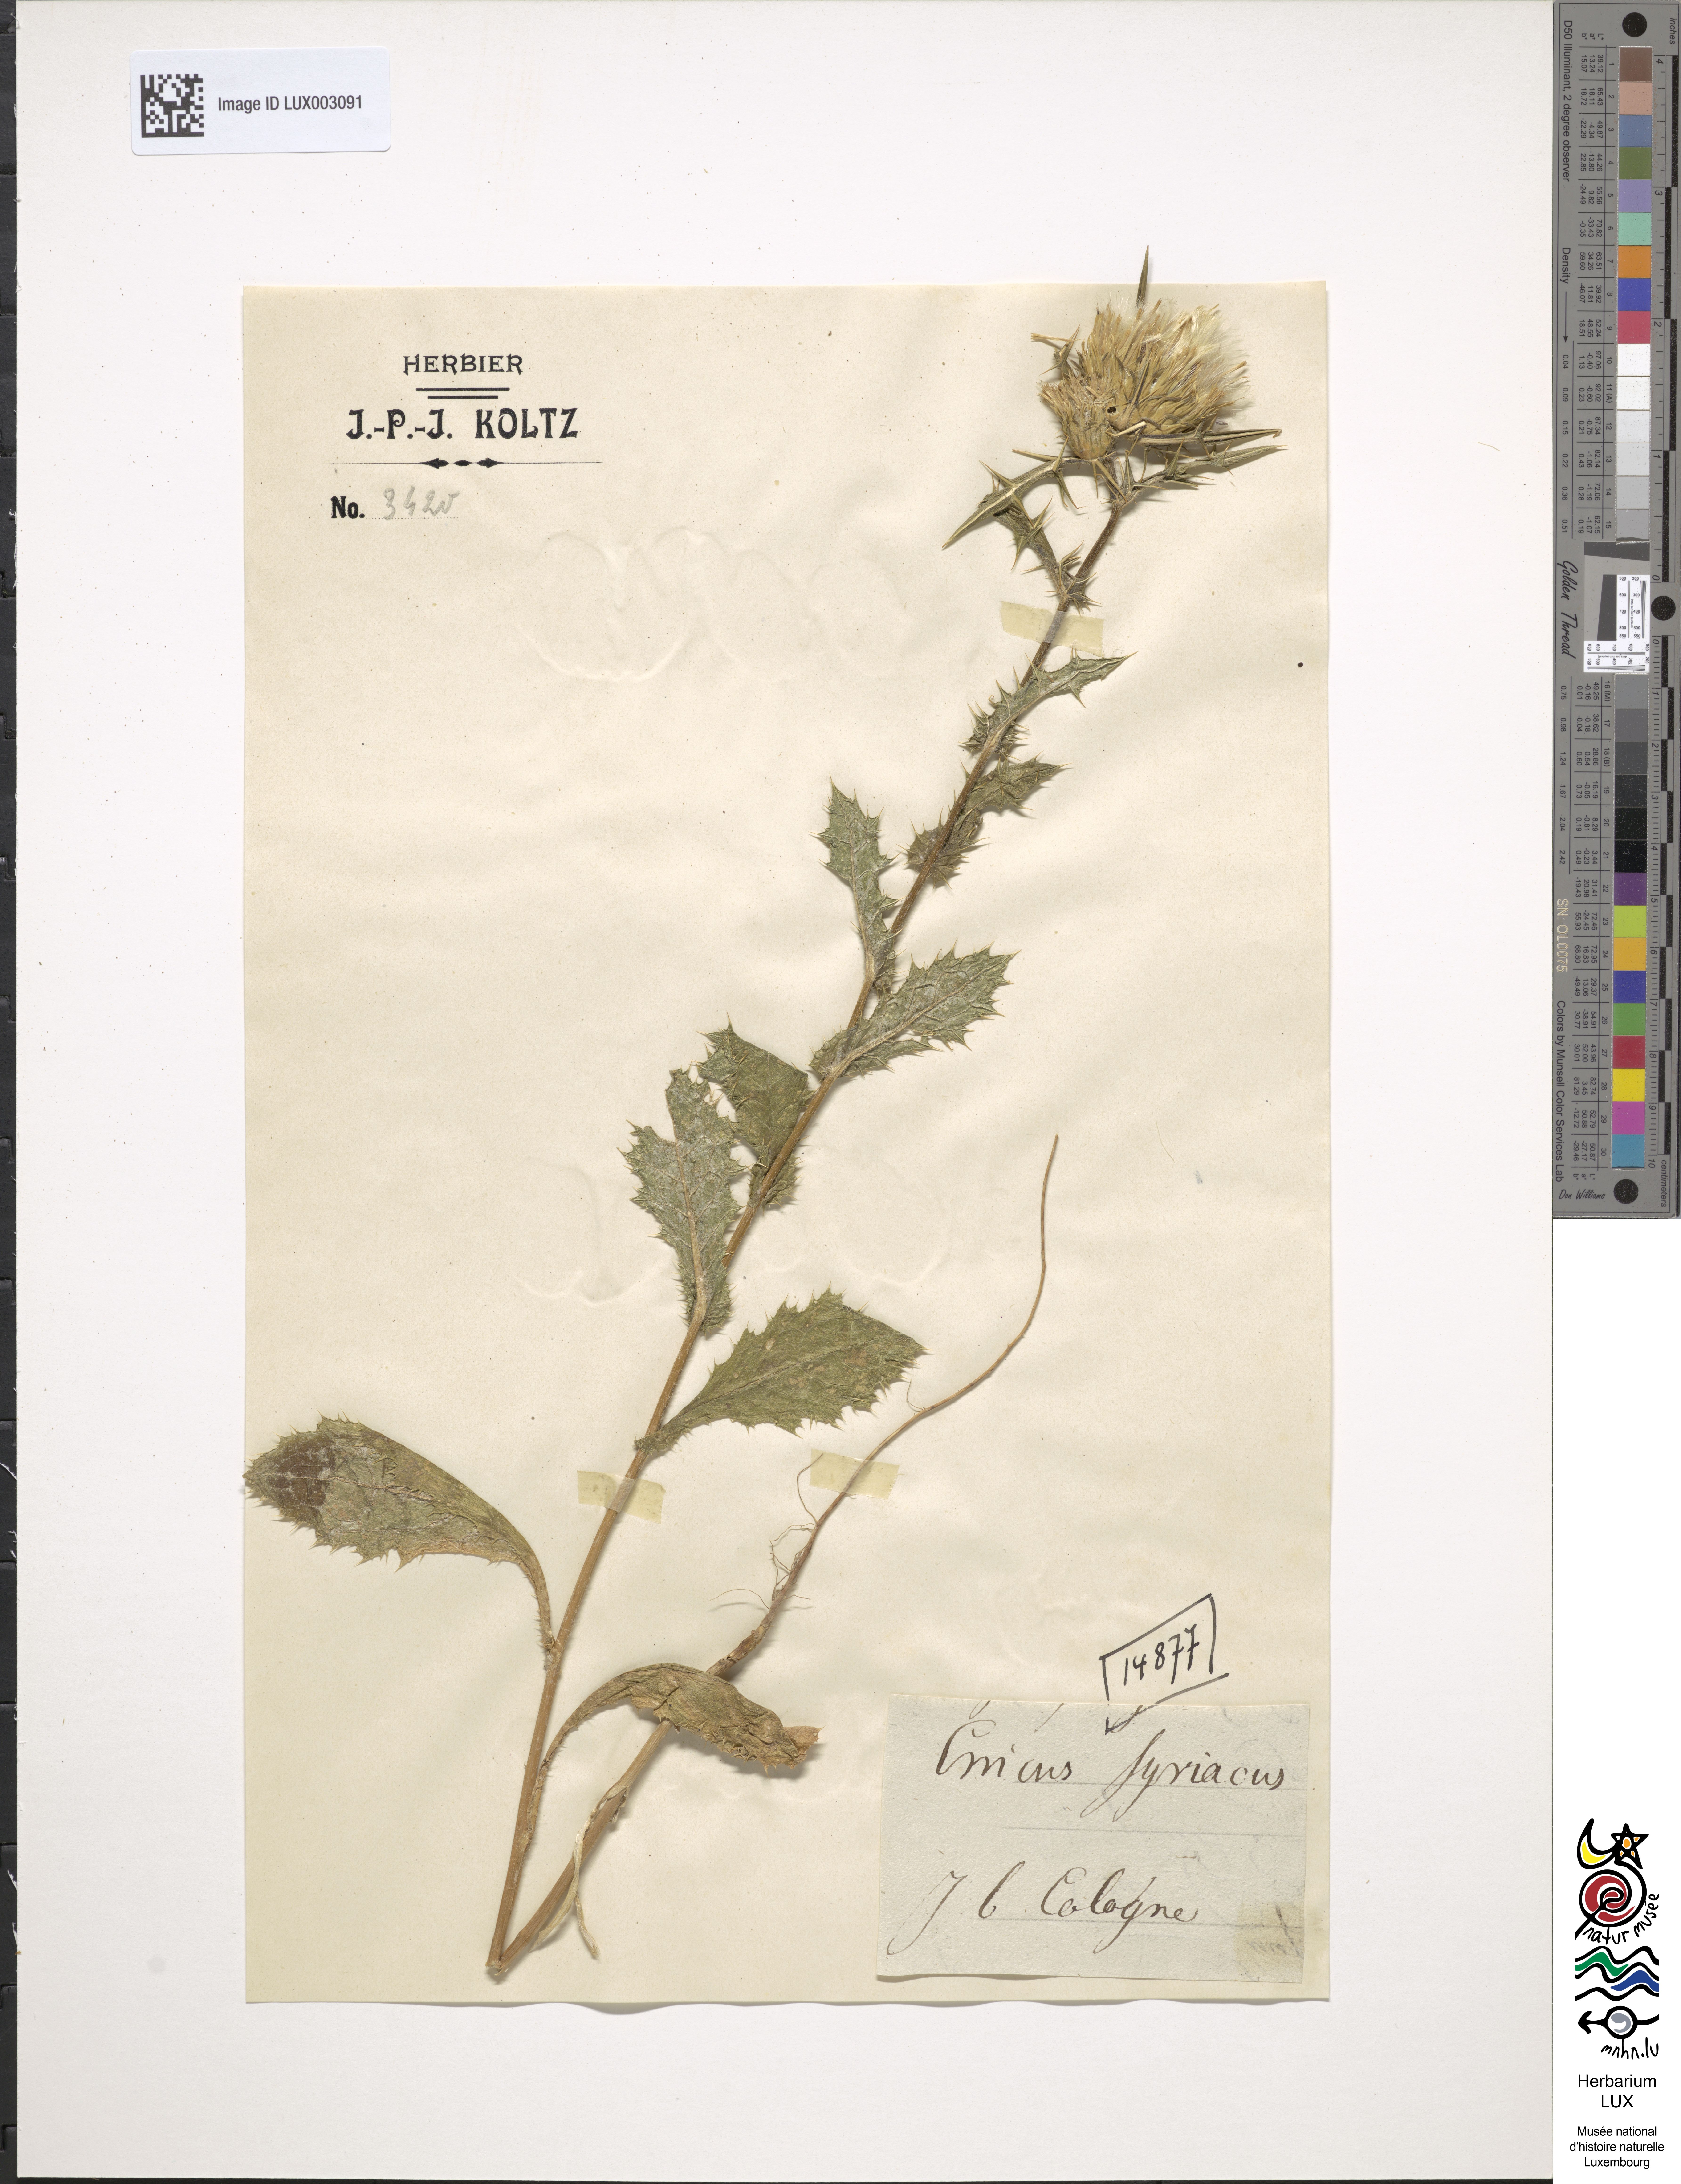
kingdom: Plantae
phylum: Tracheophyta
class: Magnoliopsida
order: Asterales
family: Asteraceae
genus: Notobasis
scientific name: Notobasis syriaca
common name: Syrian thistle
